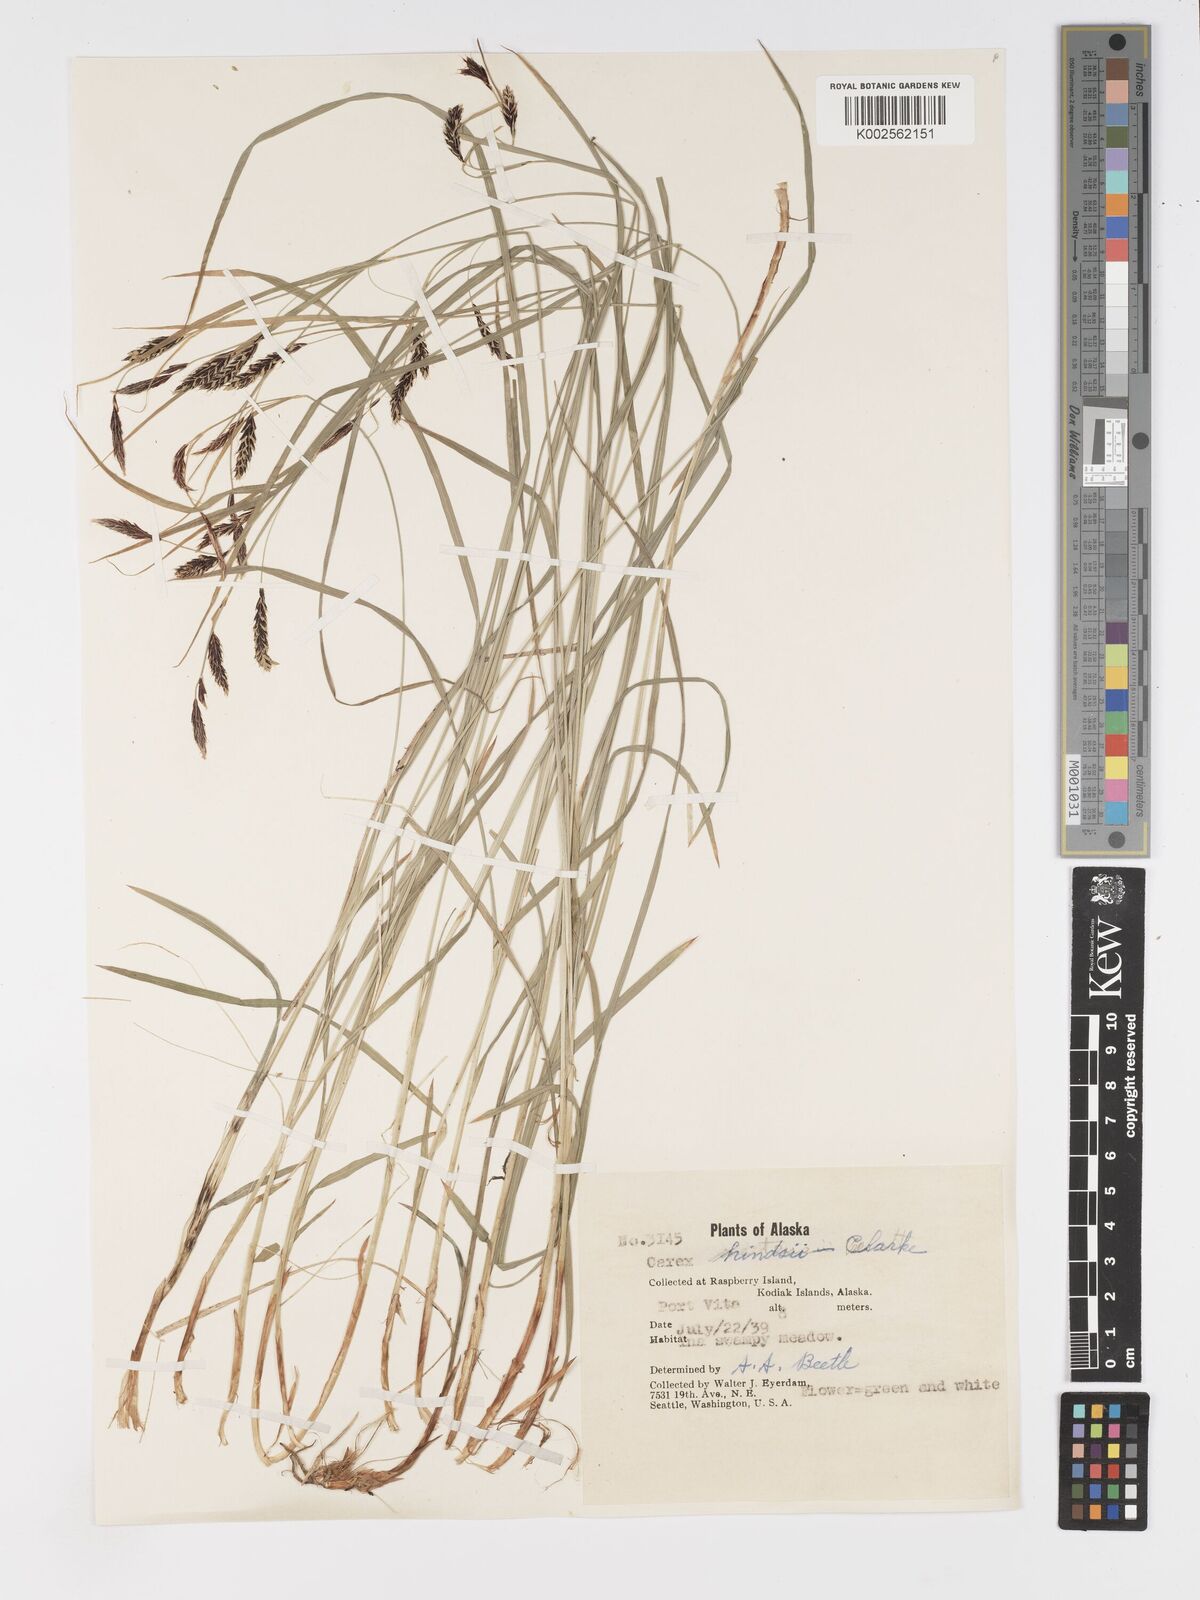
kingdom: Plantae
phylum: Tracheophyta
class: Liliopsida
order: Poales
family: Cyperaceae
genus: Carex
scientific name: Carex kelloggii
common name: Kellogg's sedge
